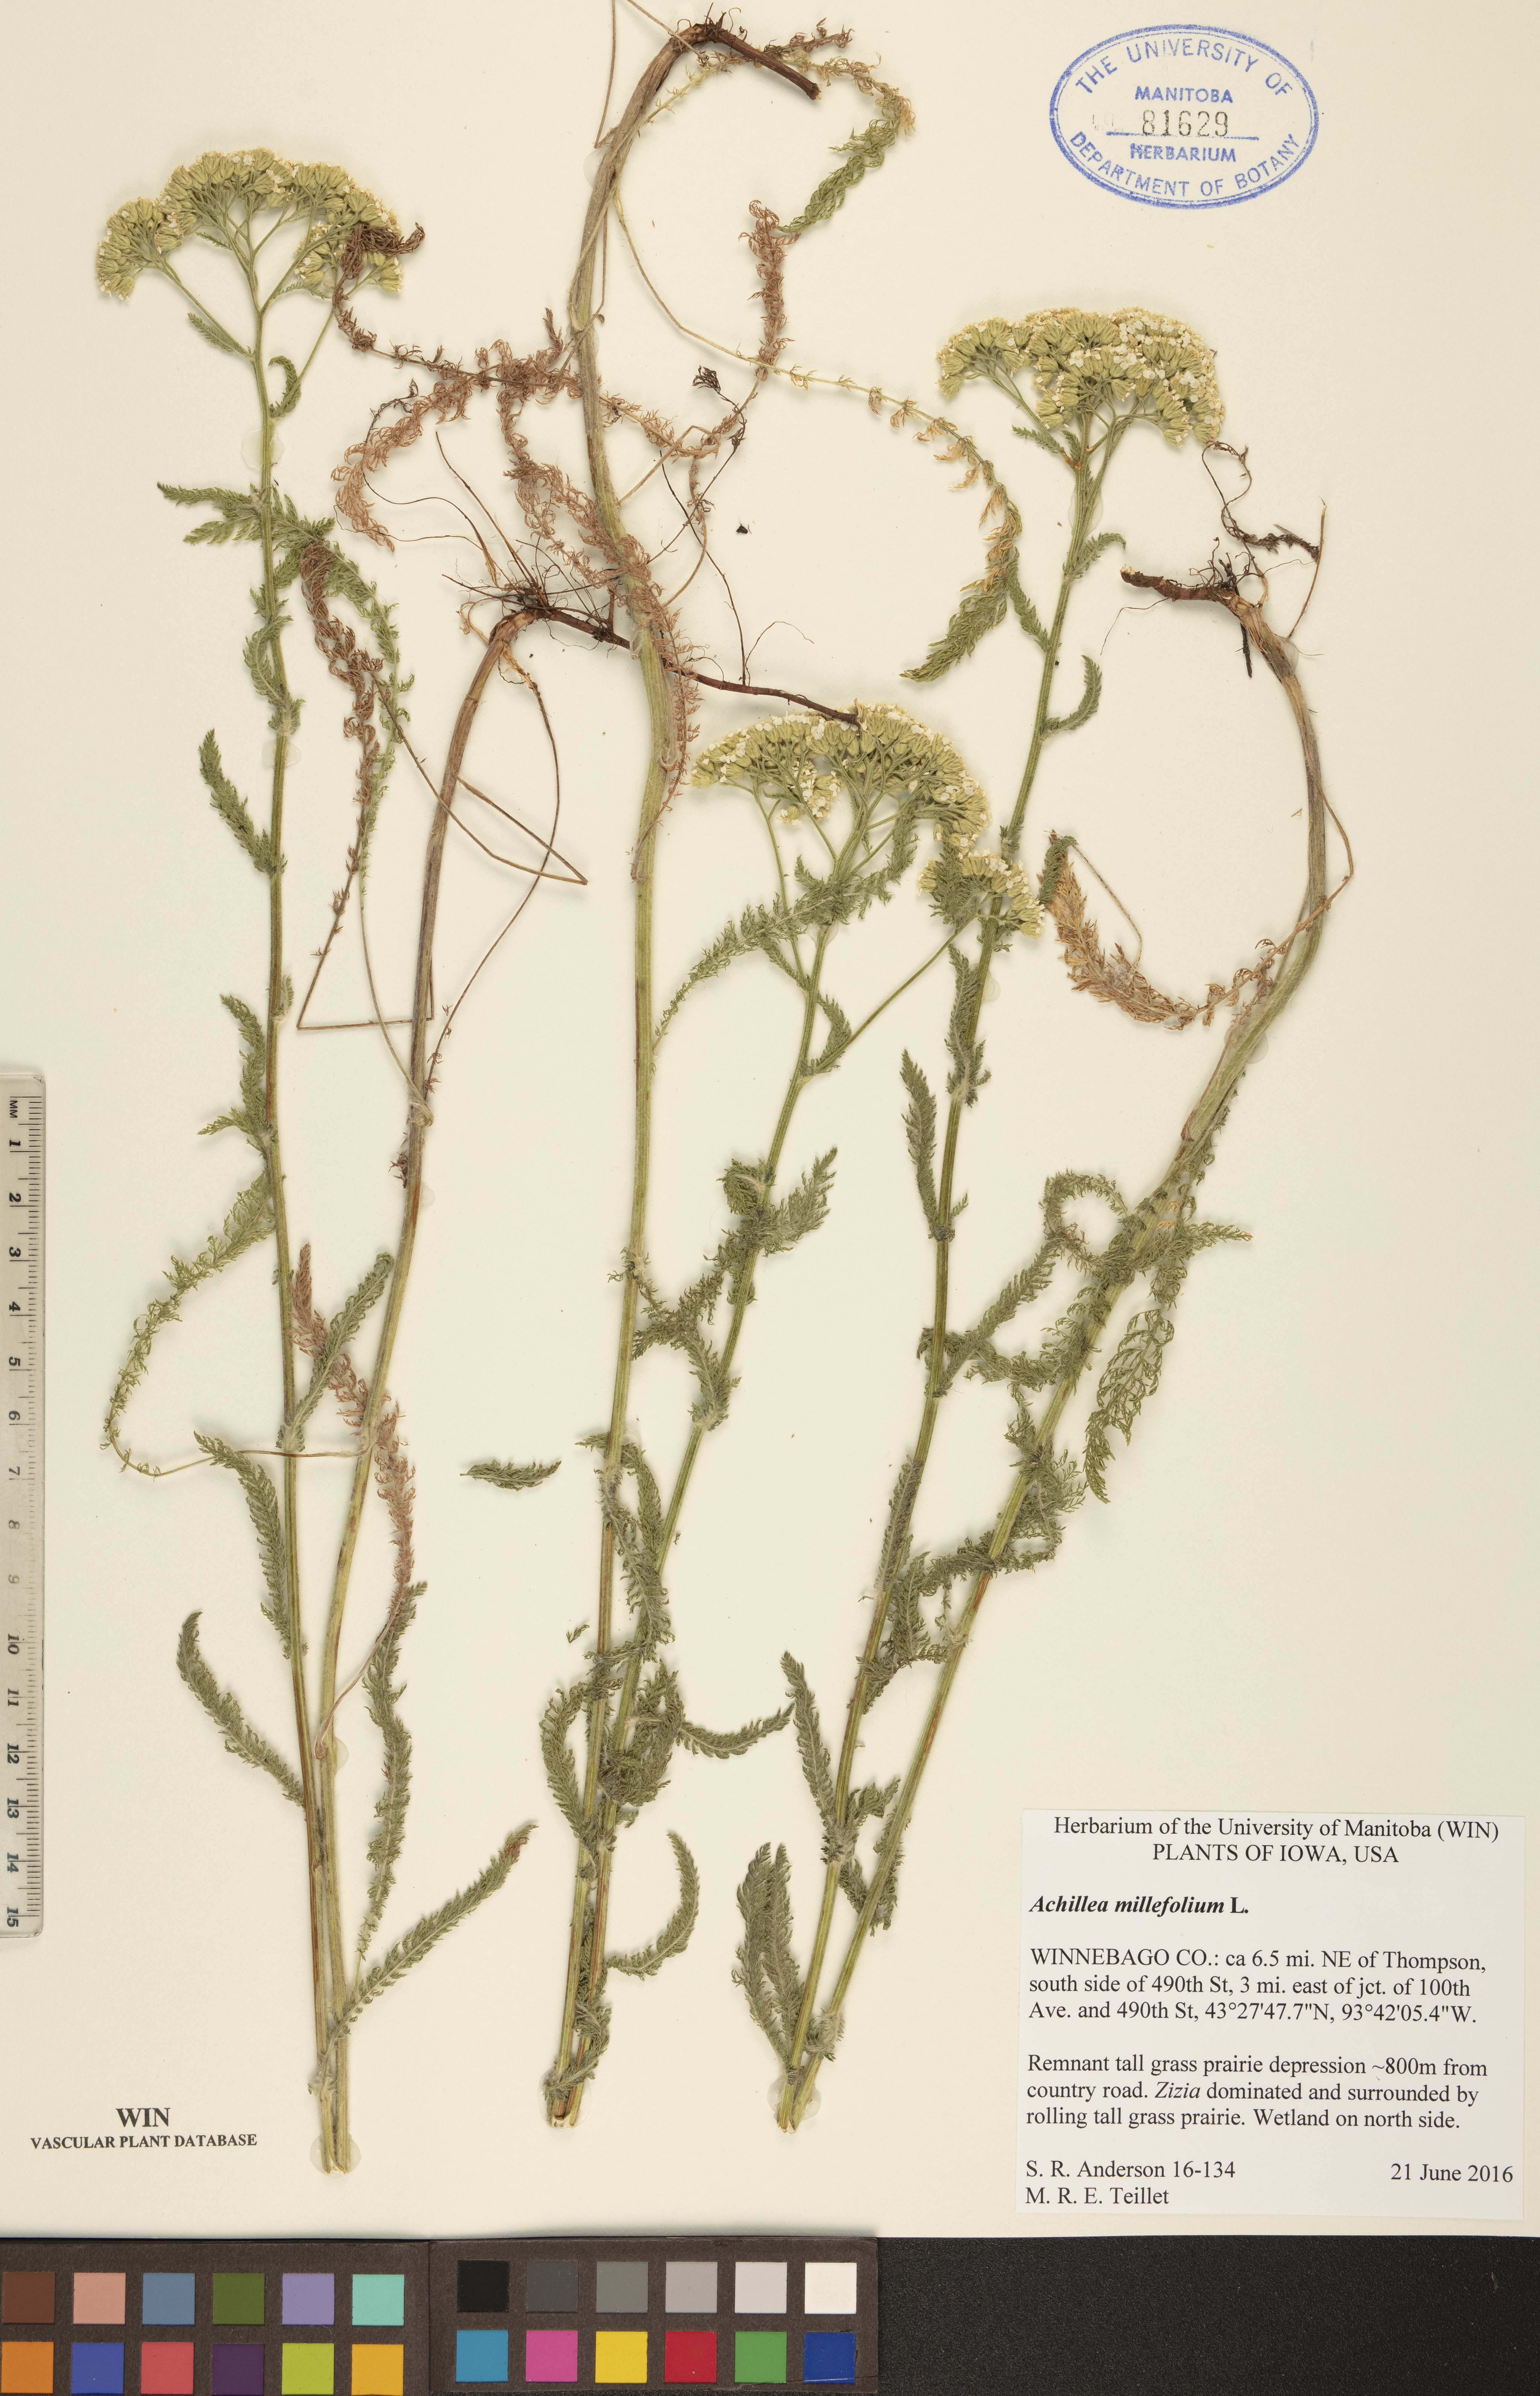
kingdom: Plantae
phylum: Tracheophyta
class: Magnoliopsida
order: Asterales
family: Asteraceae
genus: Achillea
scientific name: Achillea millefolium
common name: Yarrow
